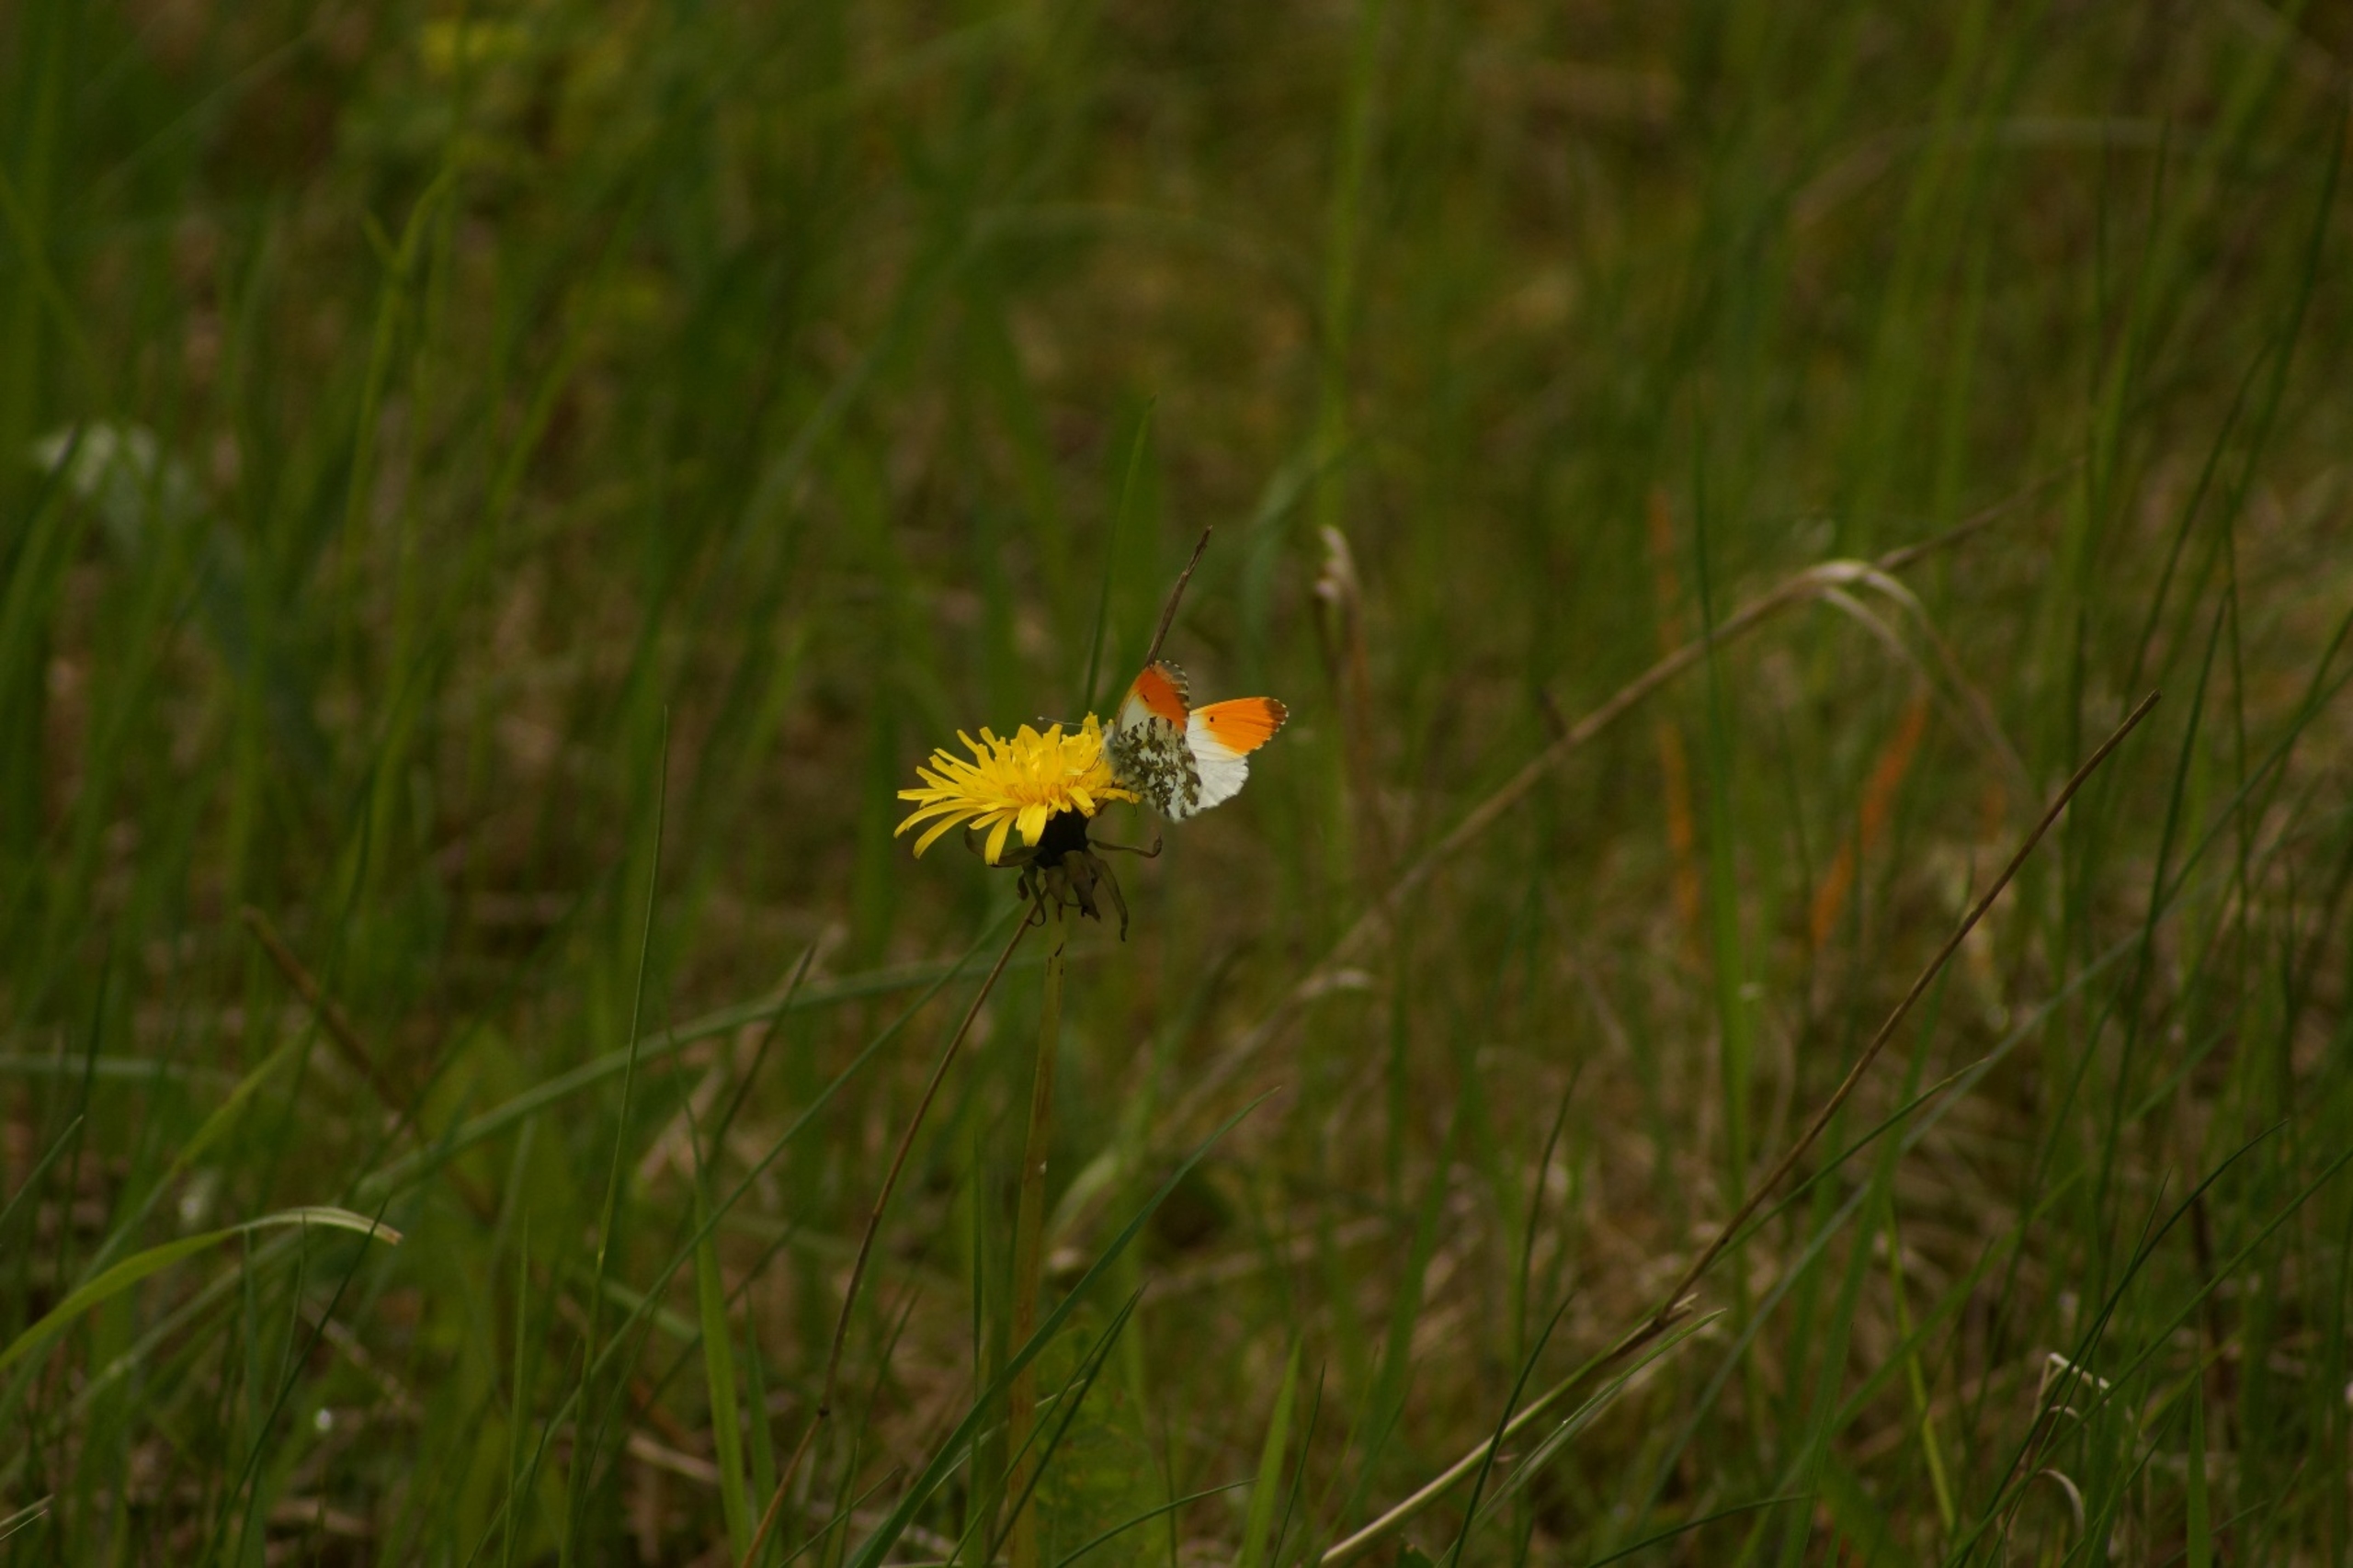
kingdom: Animalia
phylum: Arthropoda
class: Insecta
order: Lepidoptera
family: Pieridae
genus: Anthocharis
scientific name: Anthocharis cardamines
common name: Aurora
